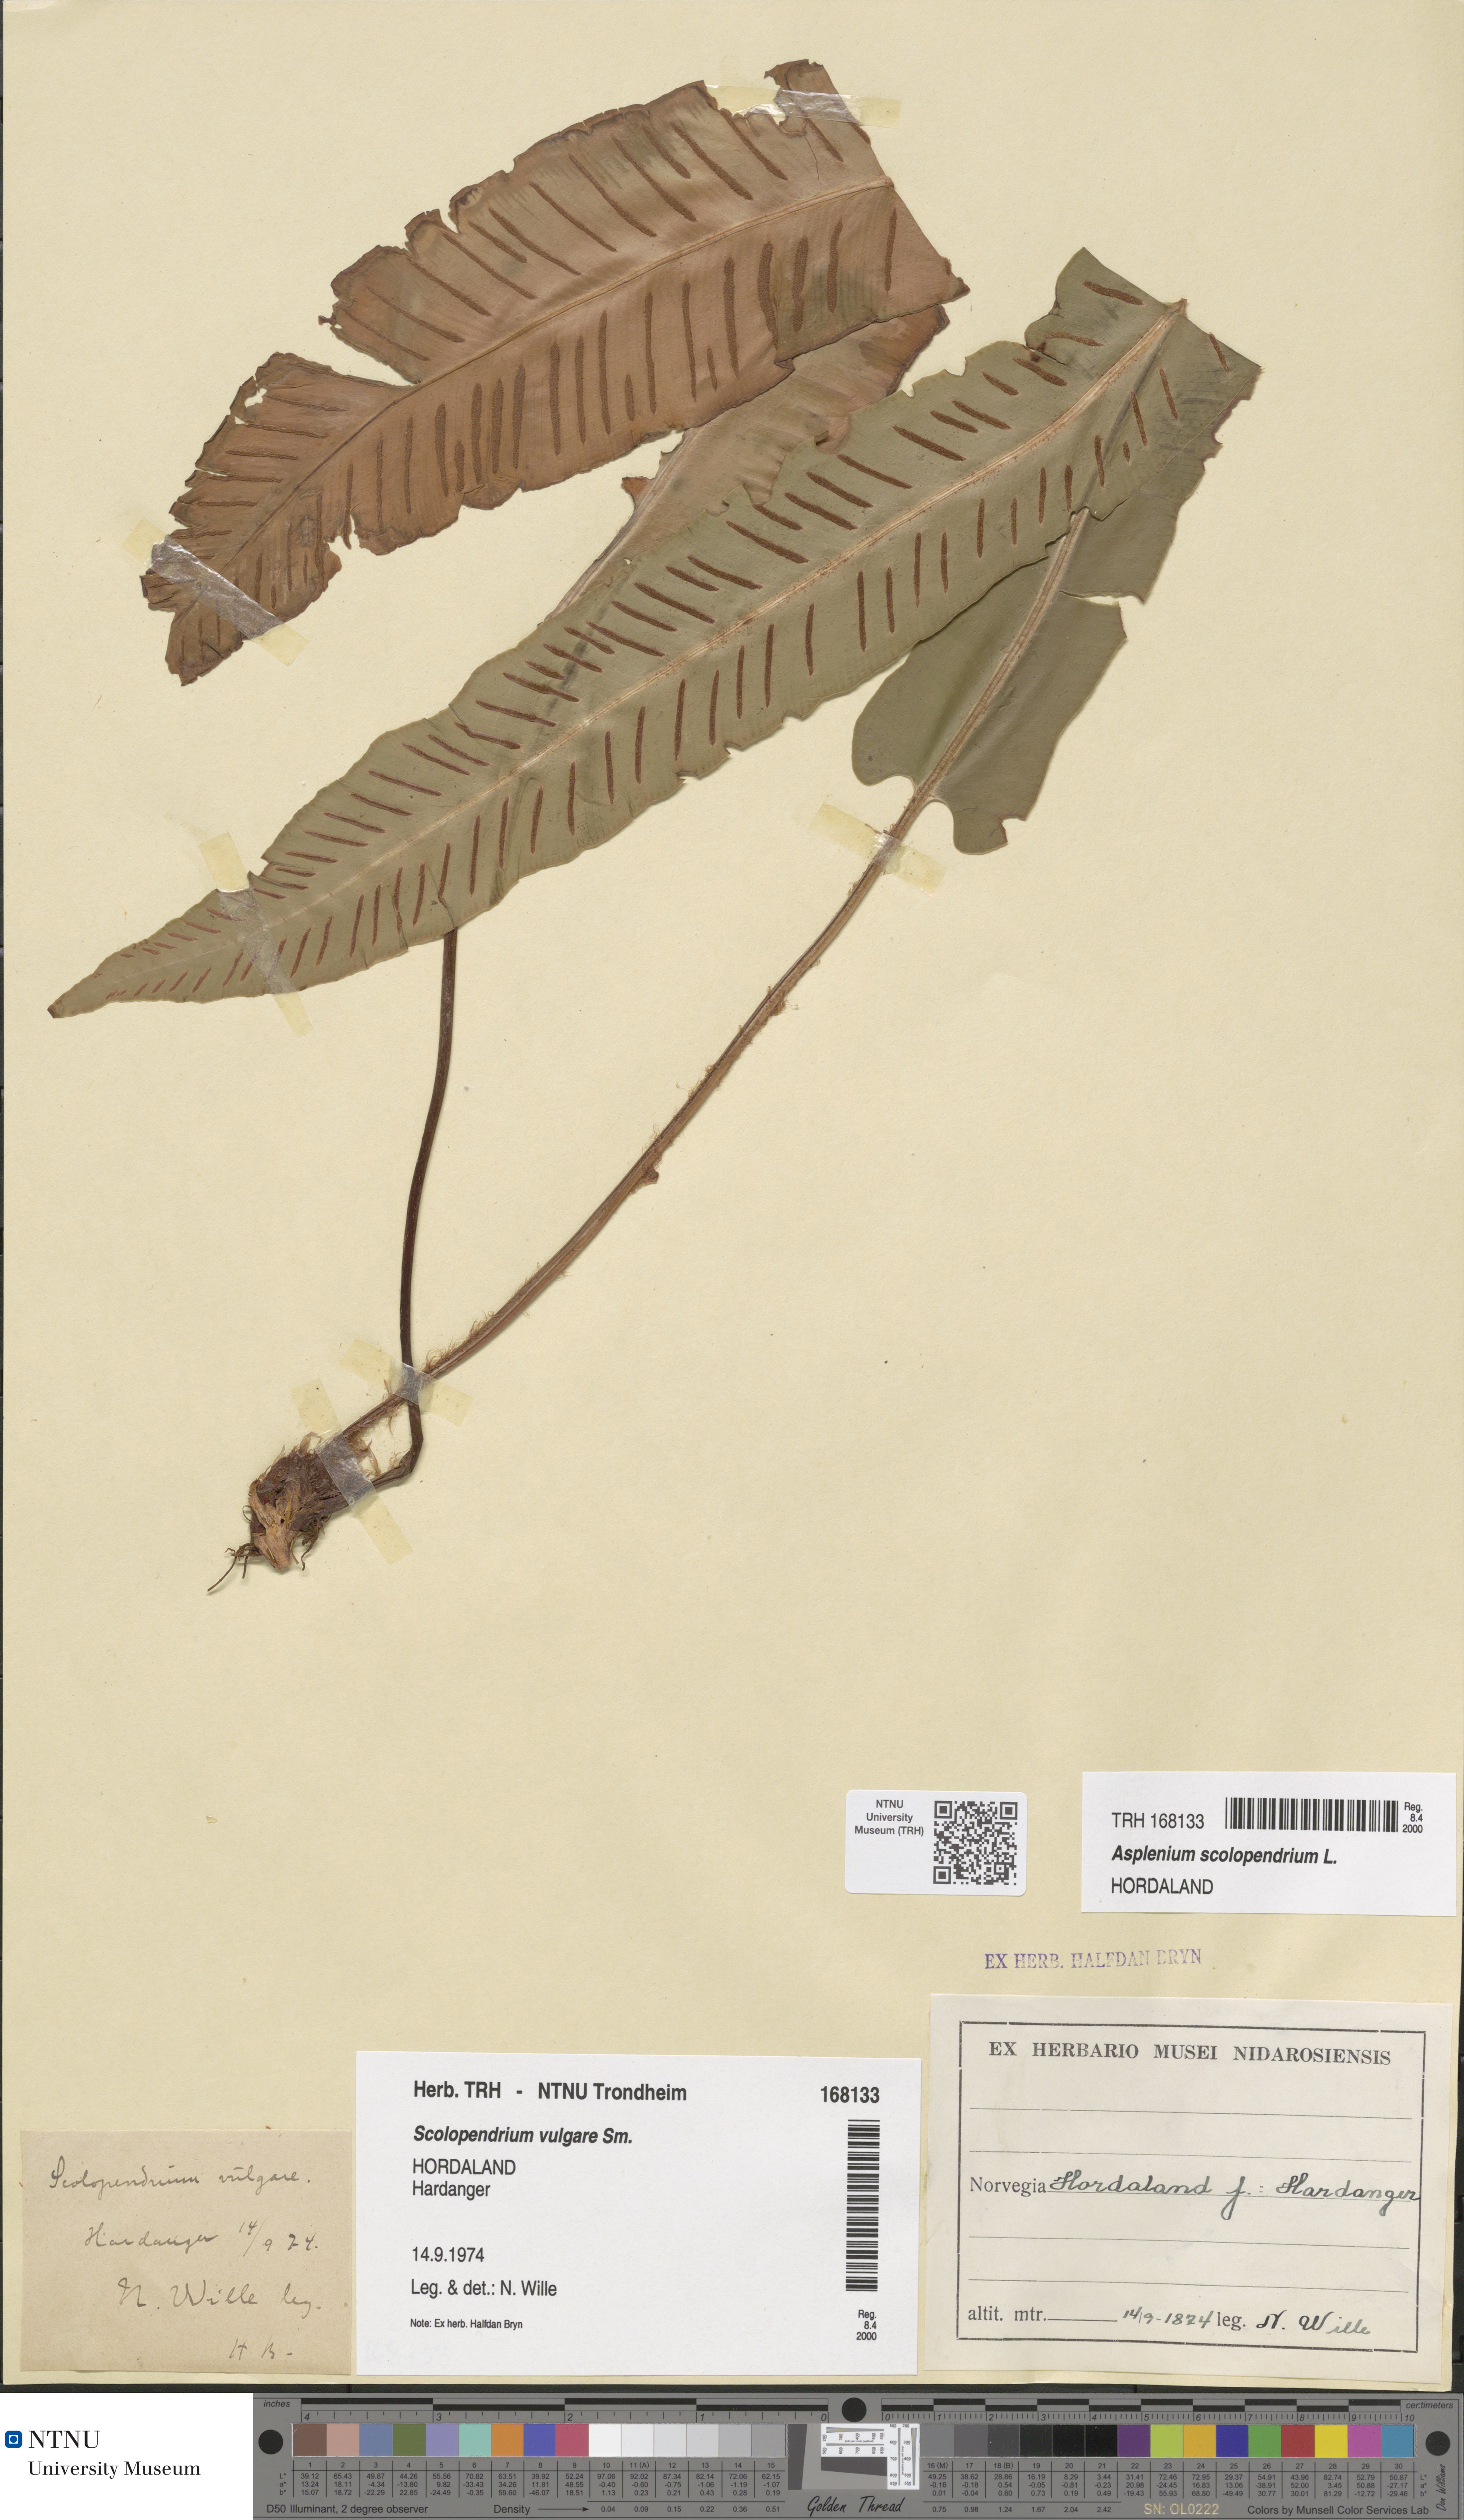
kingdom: Plantae
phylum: Tracheophyta
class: Polypodiopsida
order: Polypodiales
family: Aspleniaceae
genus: Asplenium
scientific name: Asplenium scolopendrium
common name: Hart's-tongue fern
